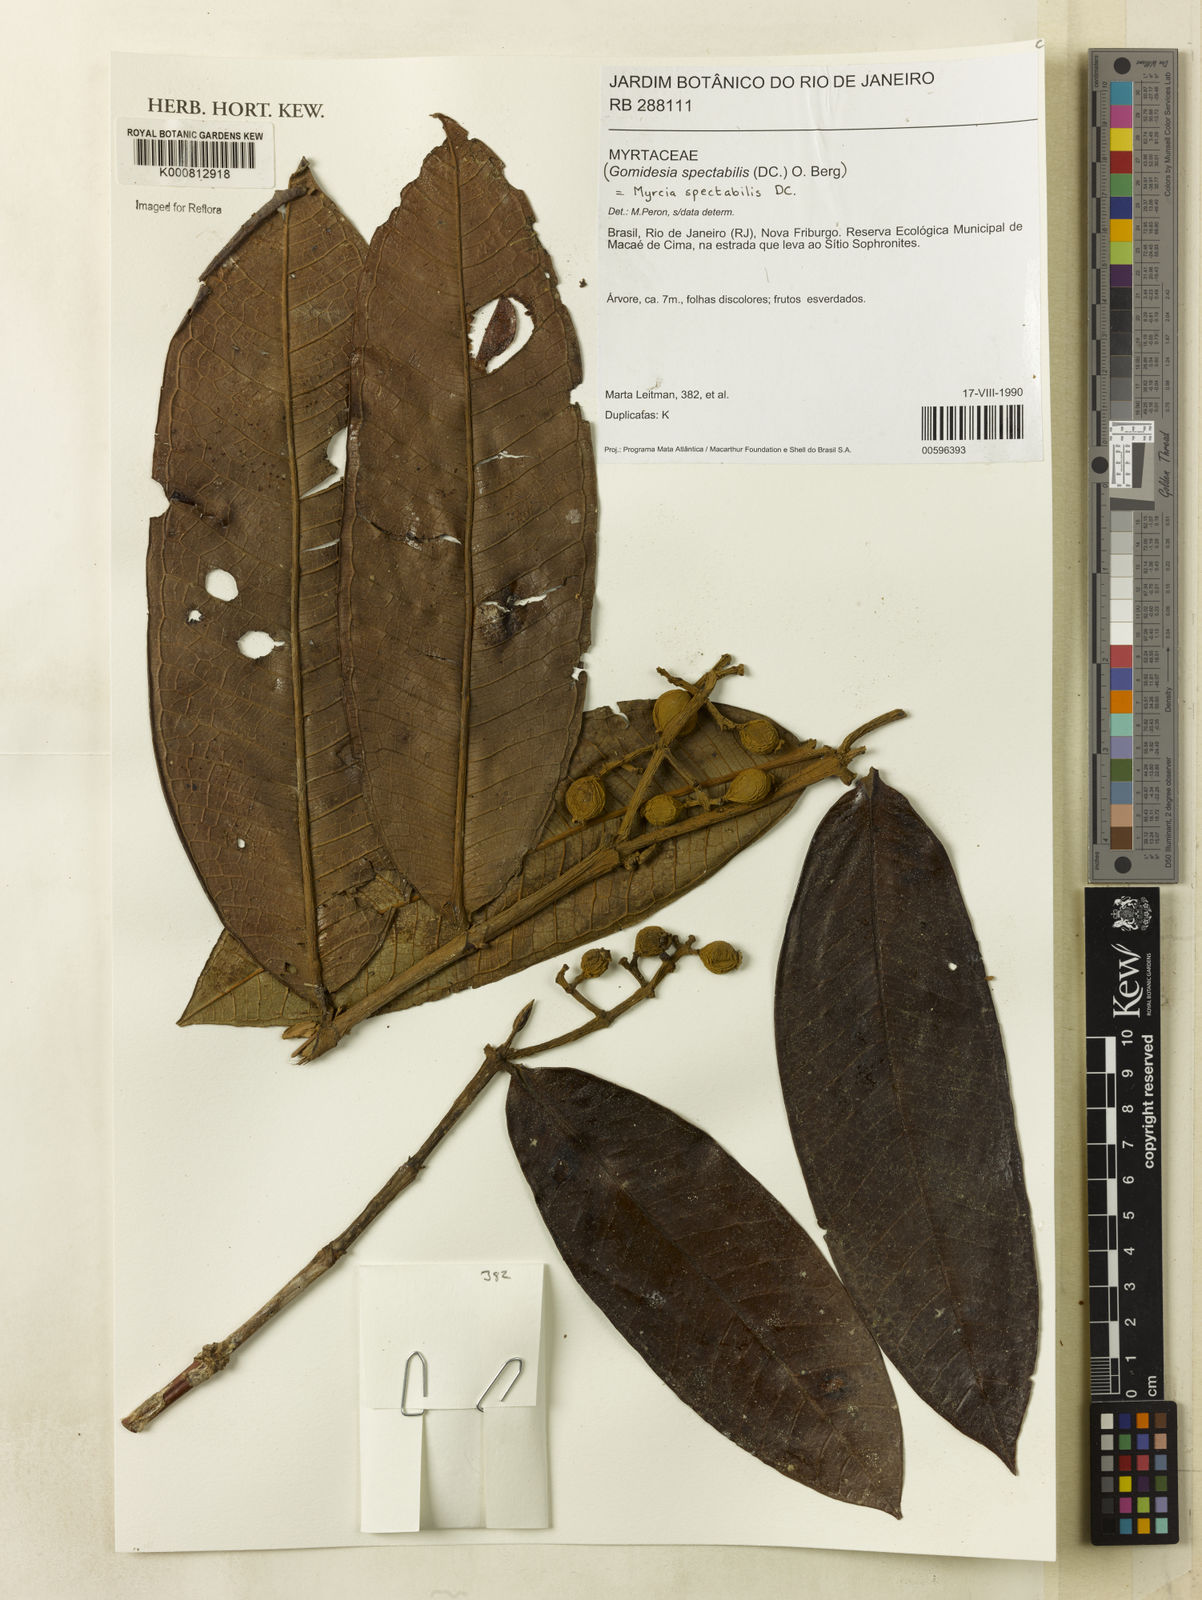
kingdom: Plantae
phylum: Tracheophyta
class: Magnoliopsida
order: Myrtales
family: Myrtaceae
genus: Myrcia
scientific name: Myrcia spectabilis
